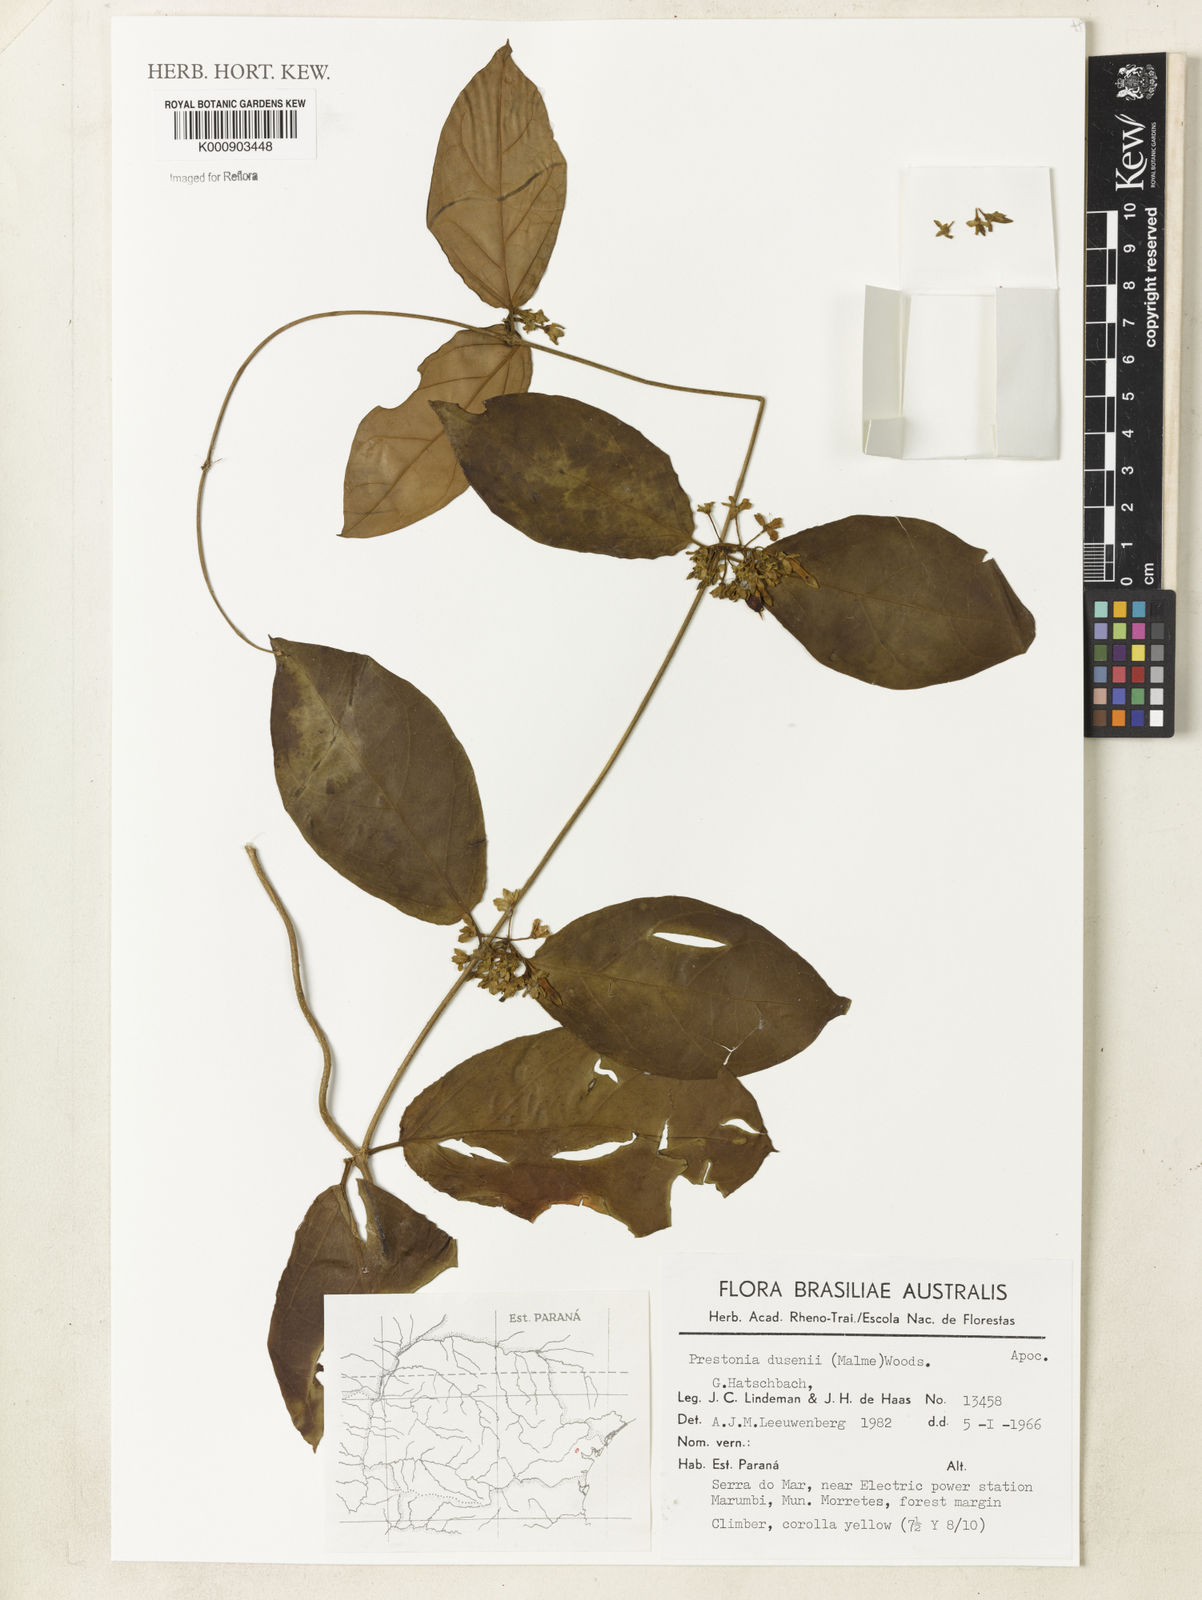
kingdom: Plantae
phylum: Tracheophyta
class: Magnoliopsida
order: Gentianales
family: Apocynaceae
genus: Prestonia
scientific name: Prestonia dusenii
